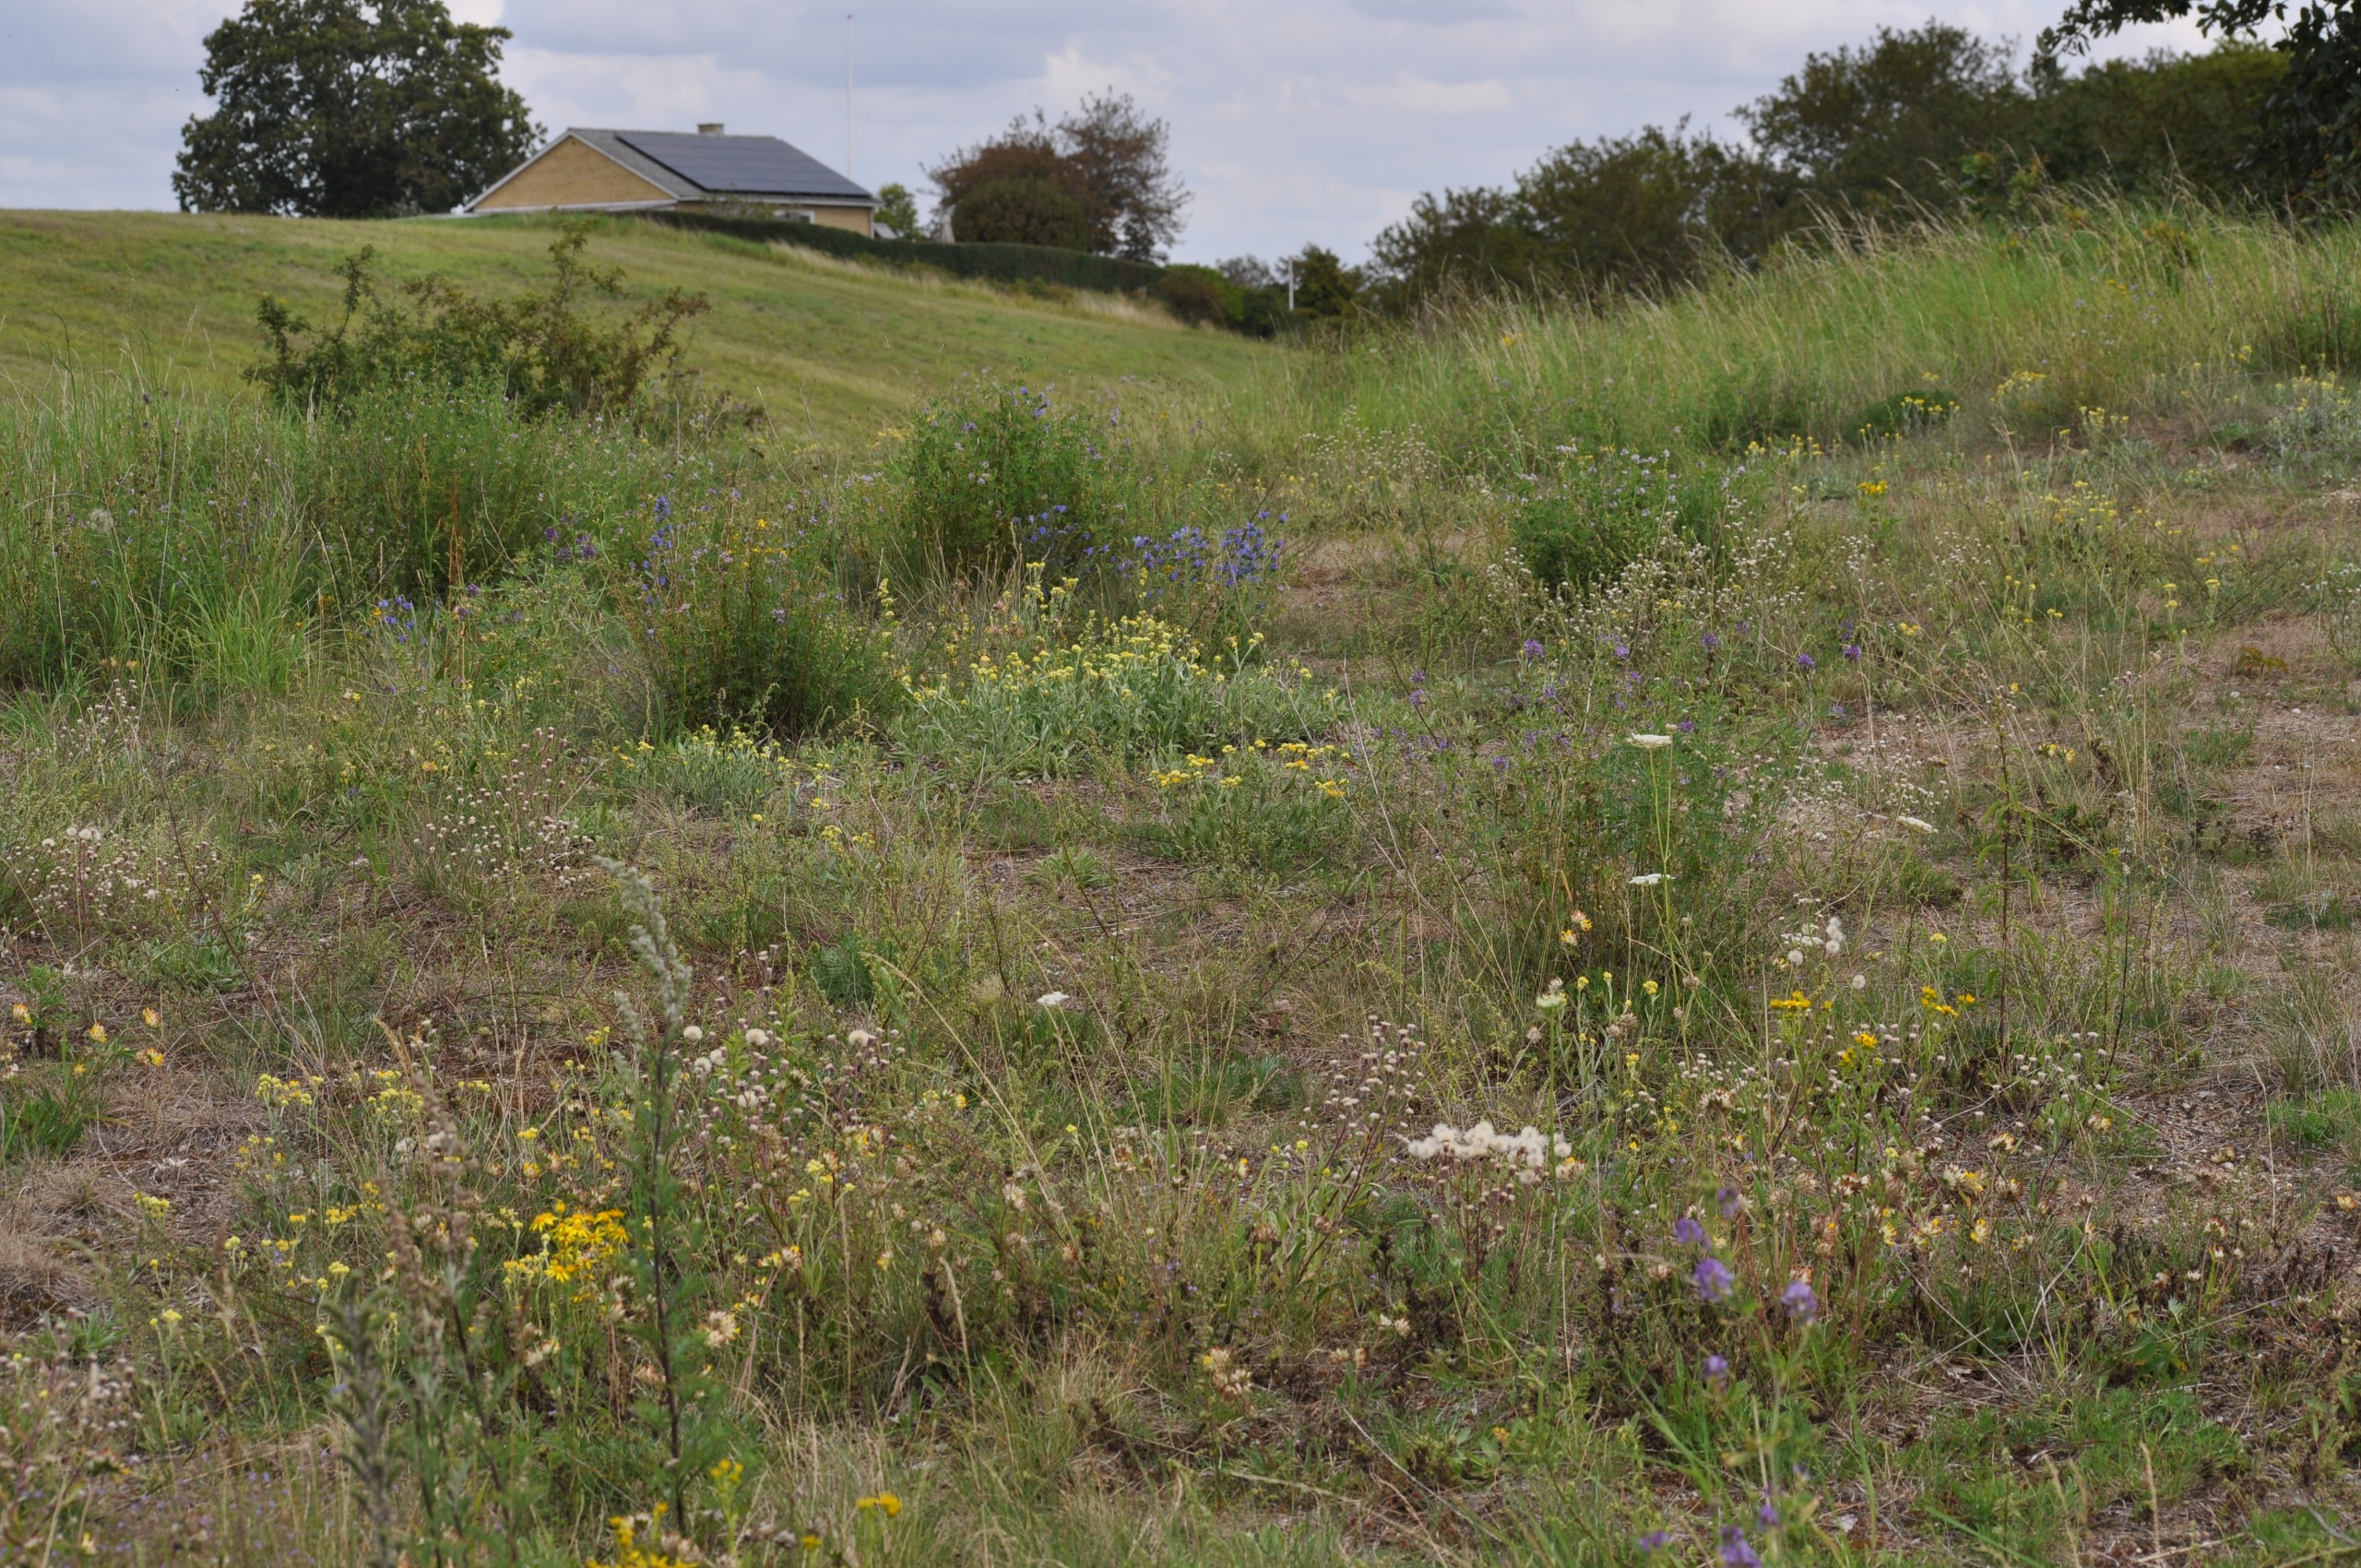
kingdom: Plantae
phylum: Tracheophyta
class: Magnoliopsida
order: Asterales
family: Asteraceae
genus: Helichrysum
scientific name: Helichrysum arenarium
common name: Gul evighedsblomst
